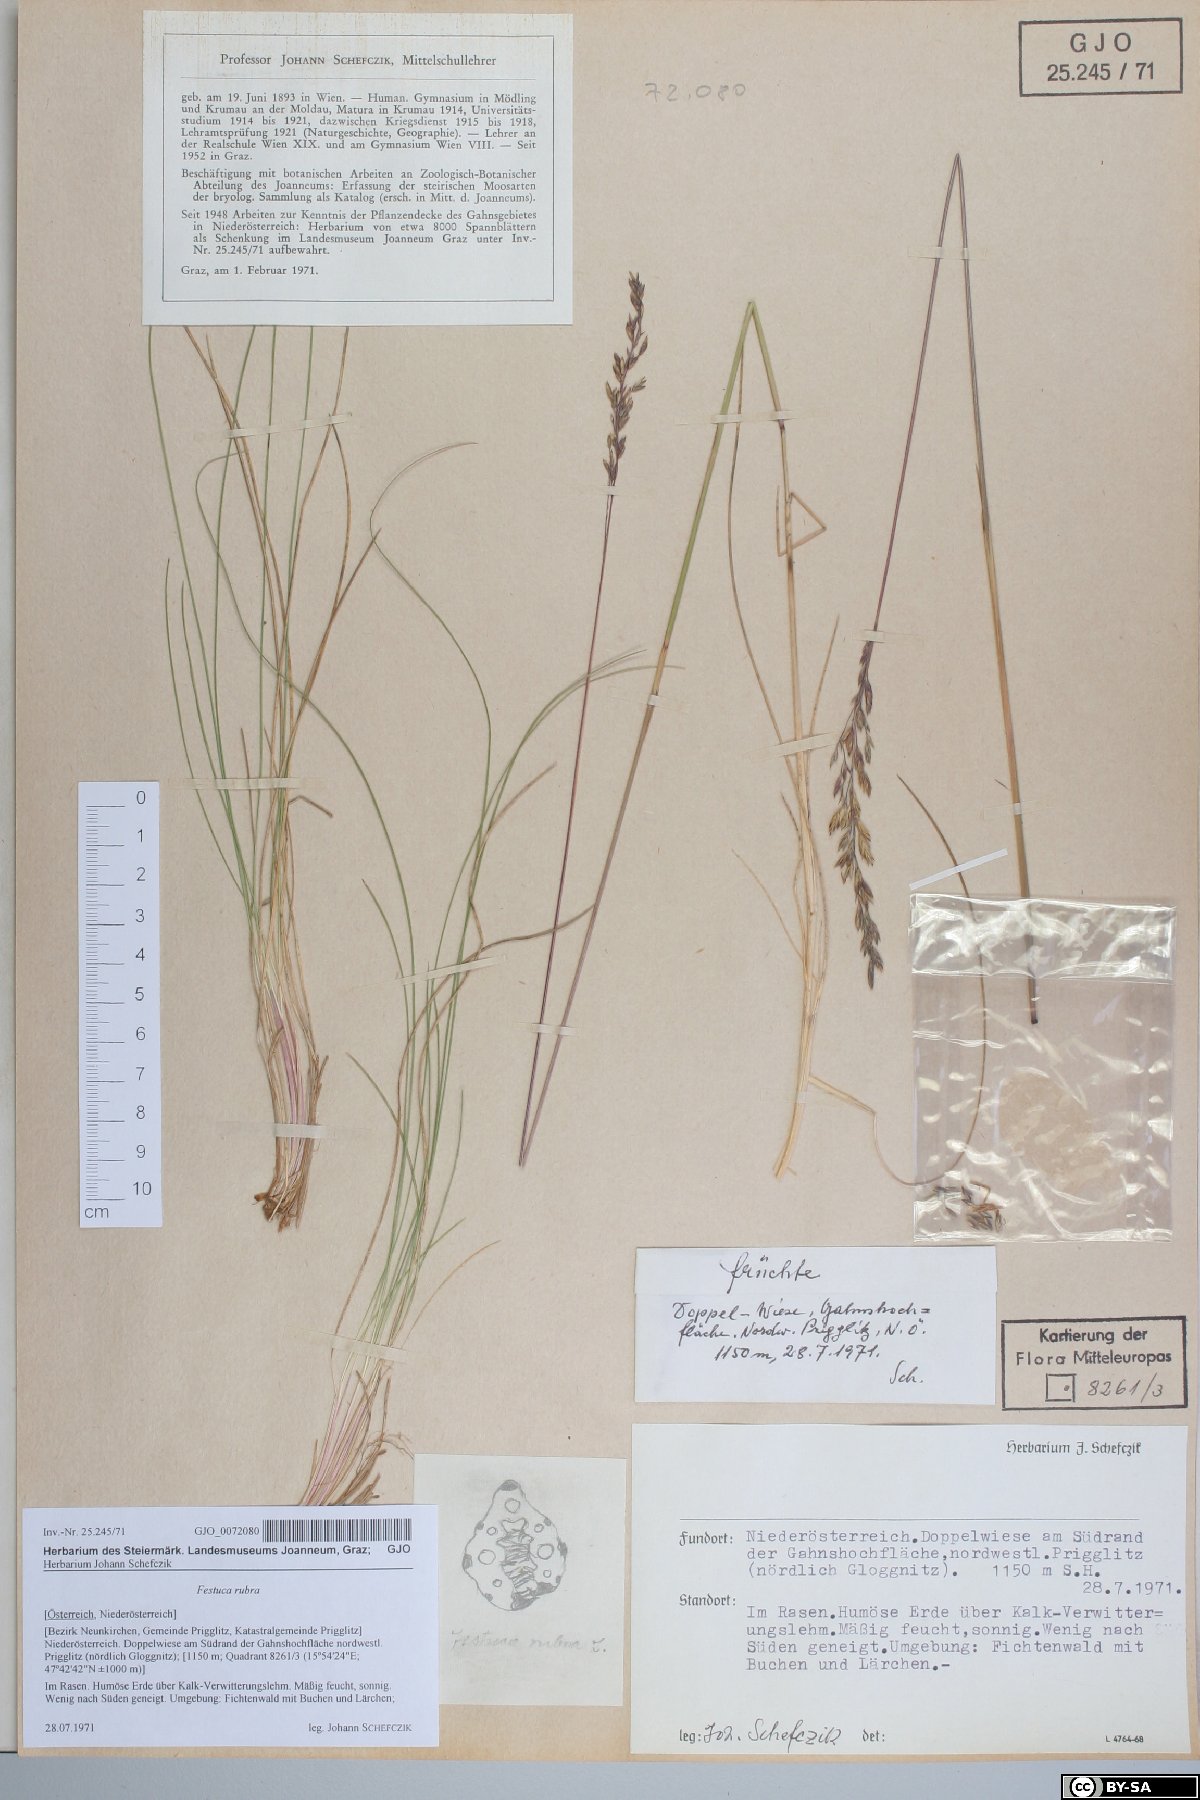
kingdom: Plantae
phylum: Tracheophyta
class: Liliopsida
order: Poales
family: Poaceae
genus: Festuca
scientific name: Festuca amethystina
